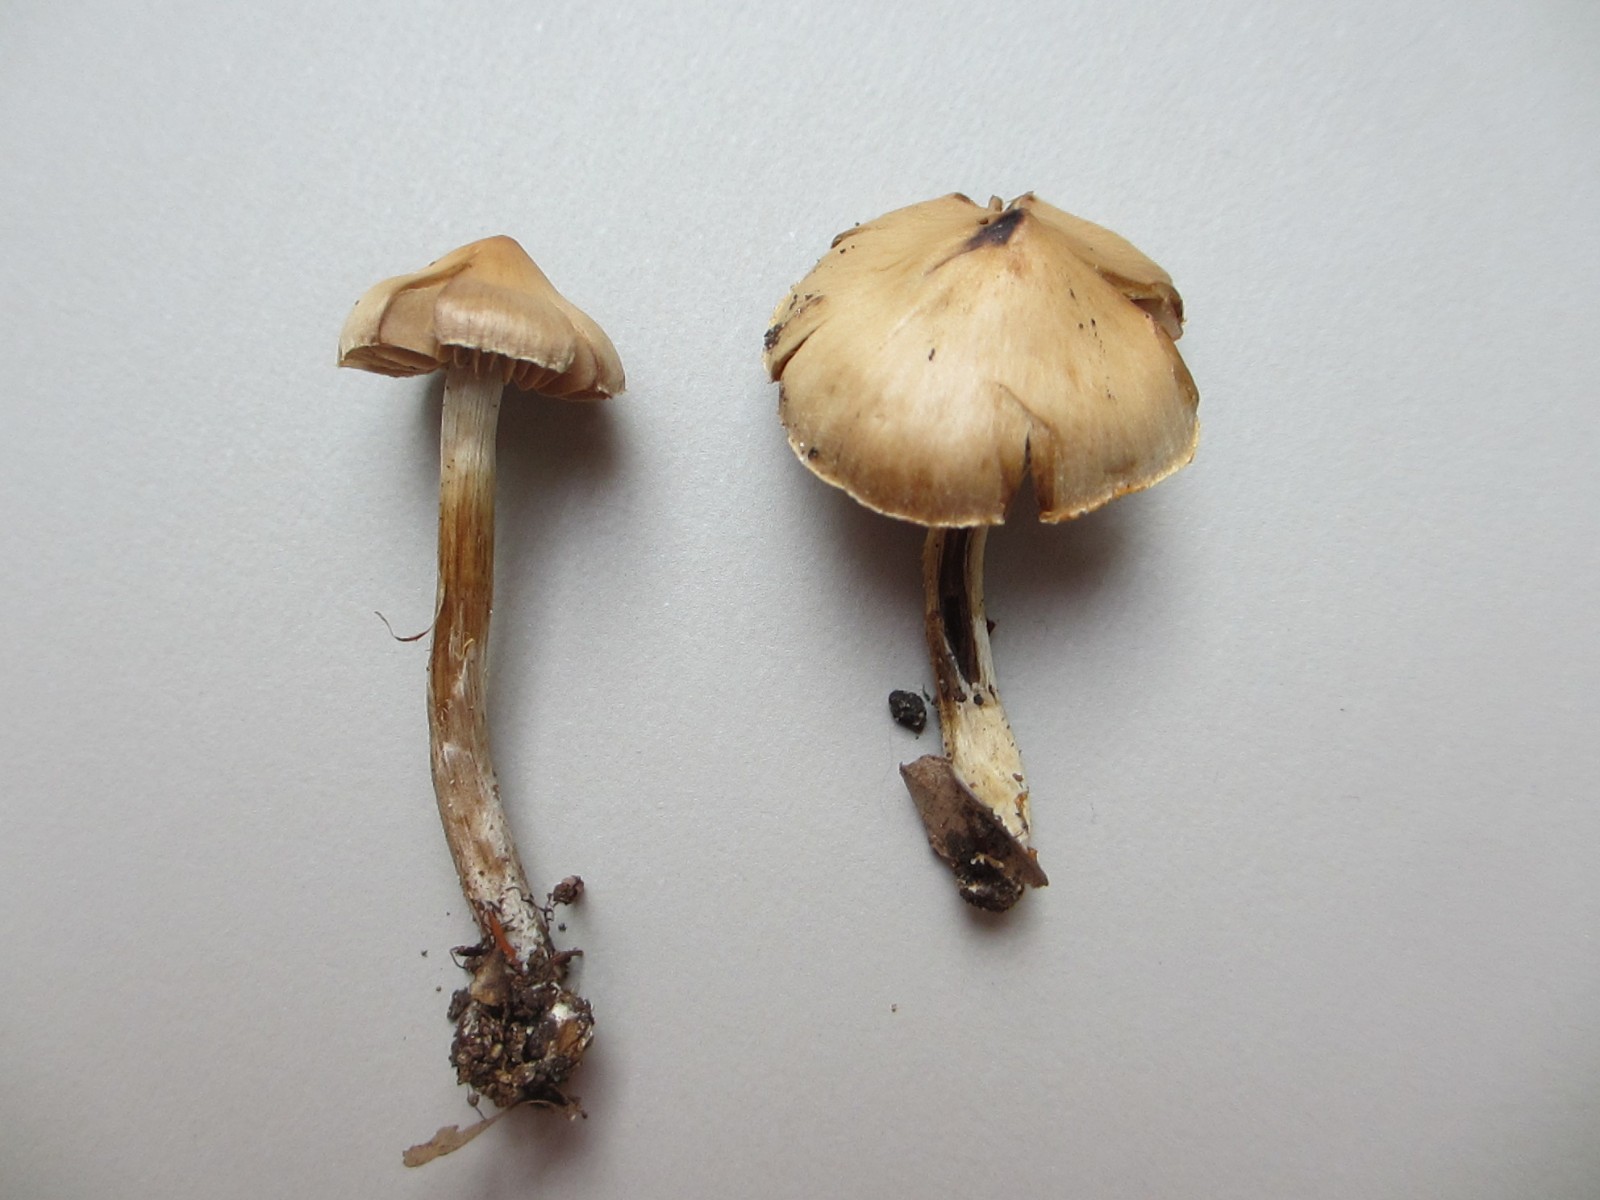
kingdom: Fungi
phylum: Basidiomycota
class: Agaricomycetes
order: Agaricales
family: Cortinariaceae
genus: Cortinarius
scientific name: Cortinarius
